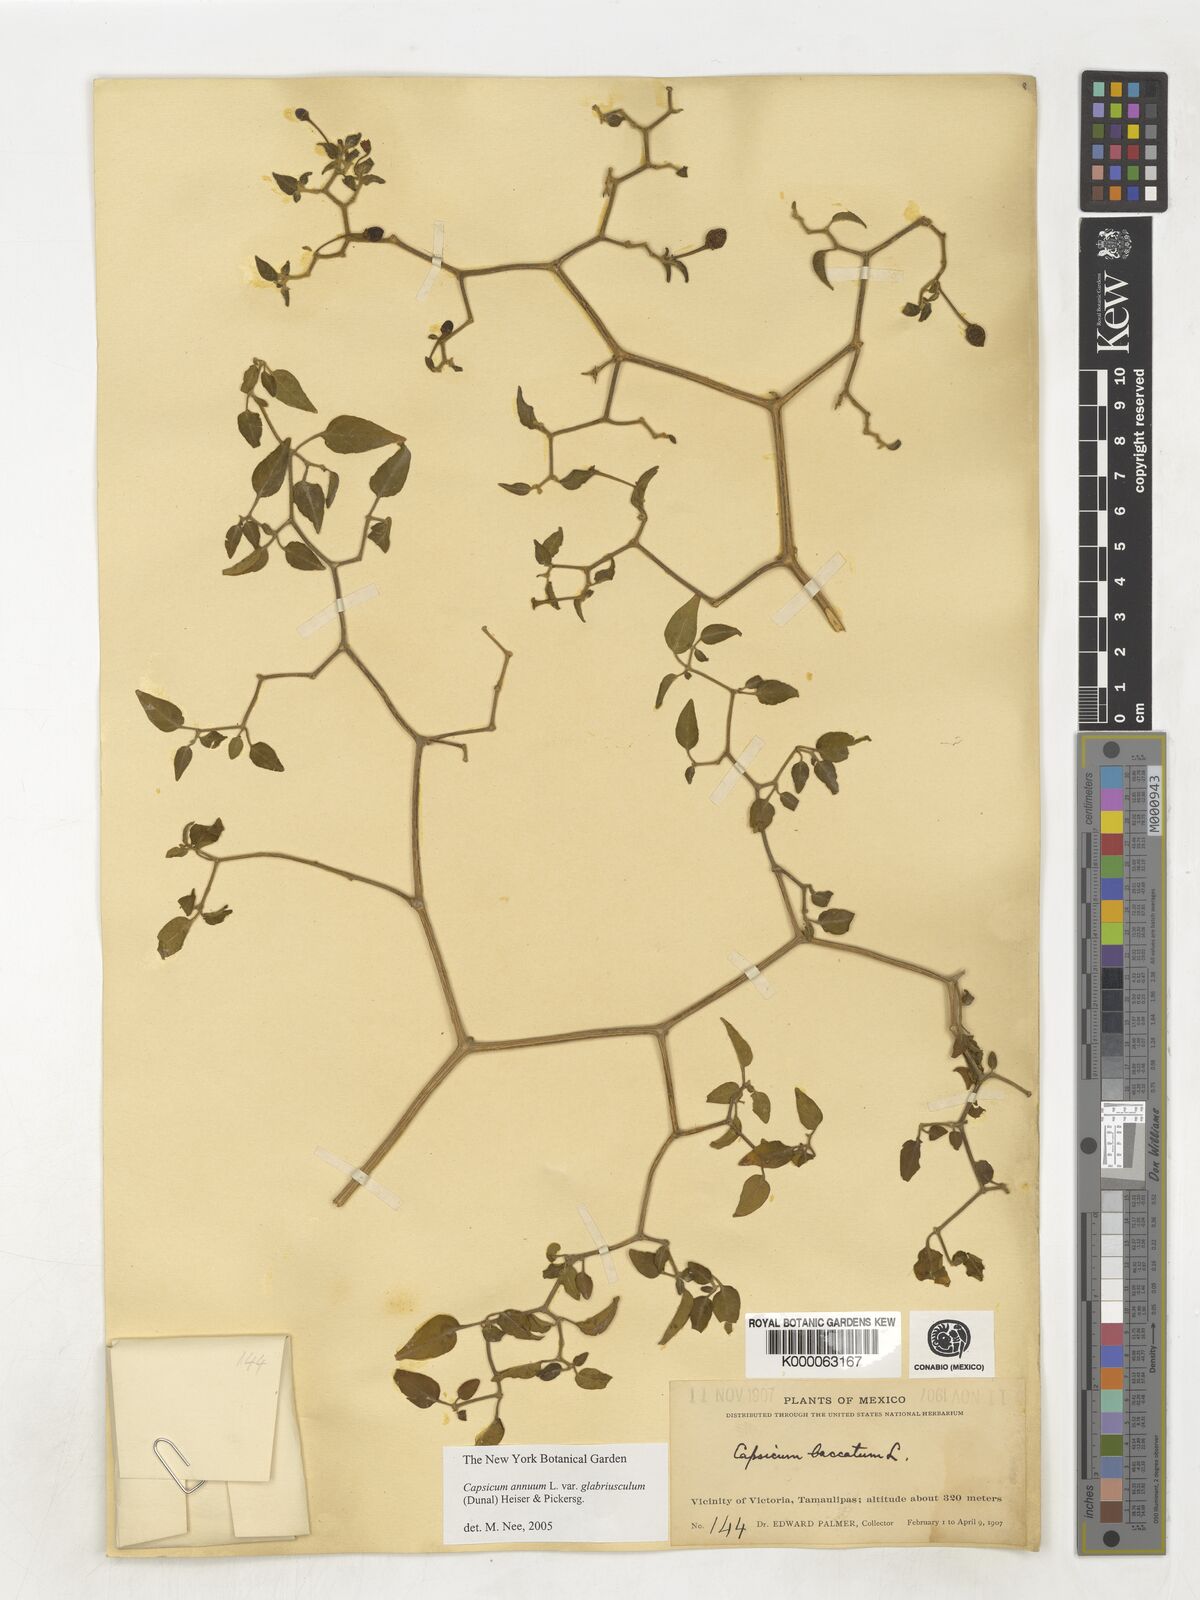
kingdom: Plantae
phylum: Tracheophyta
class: Magnoliopsida
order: Solanales
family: Solanaceae
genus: Capsicum
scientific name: Capsicum baccatum
